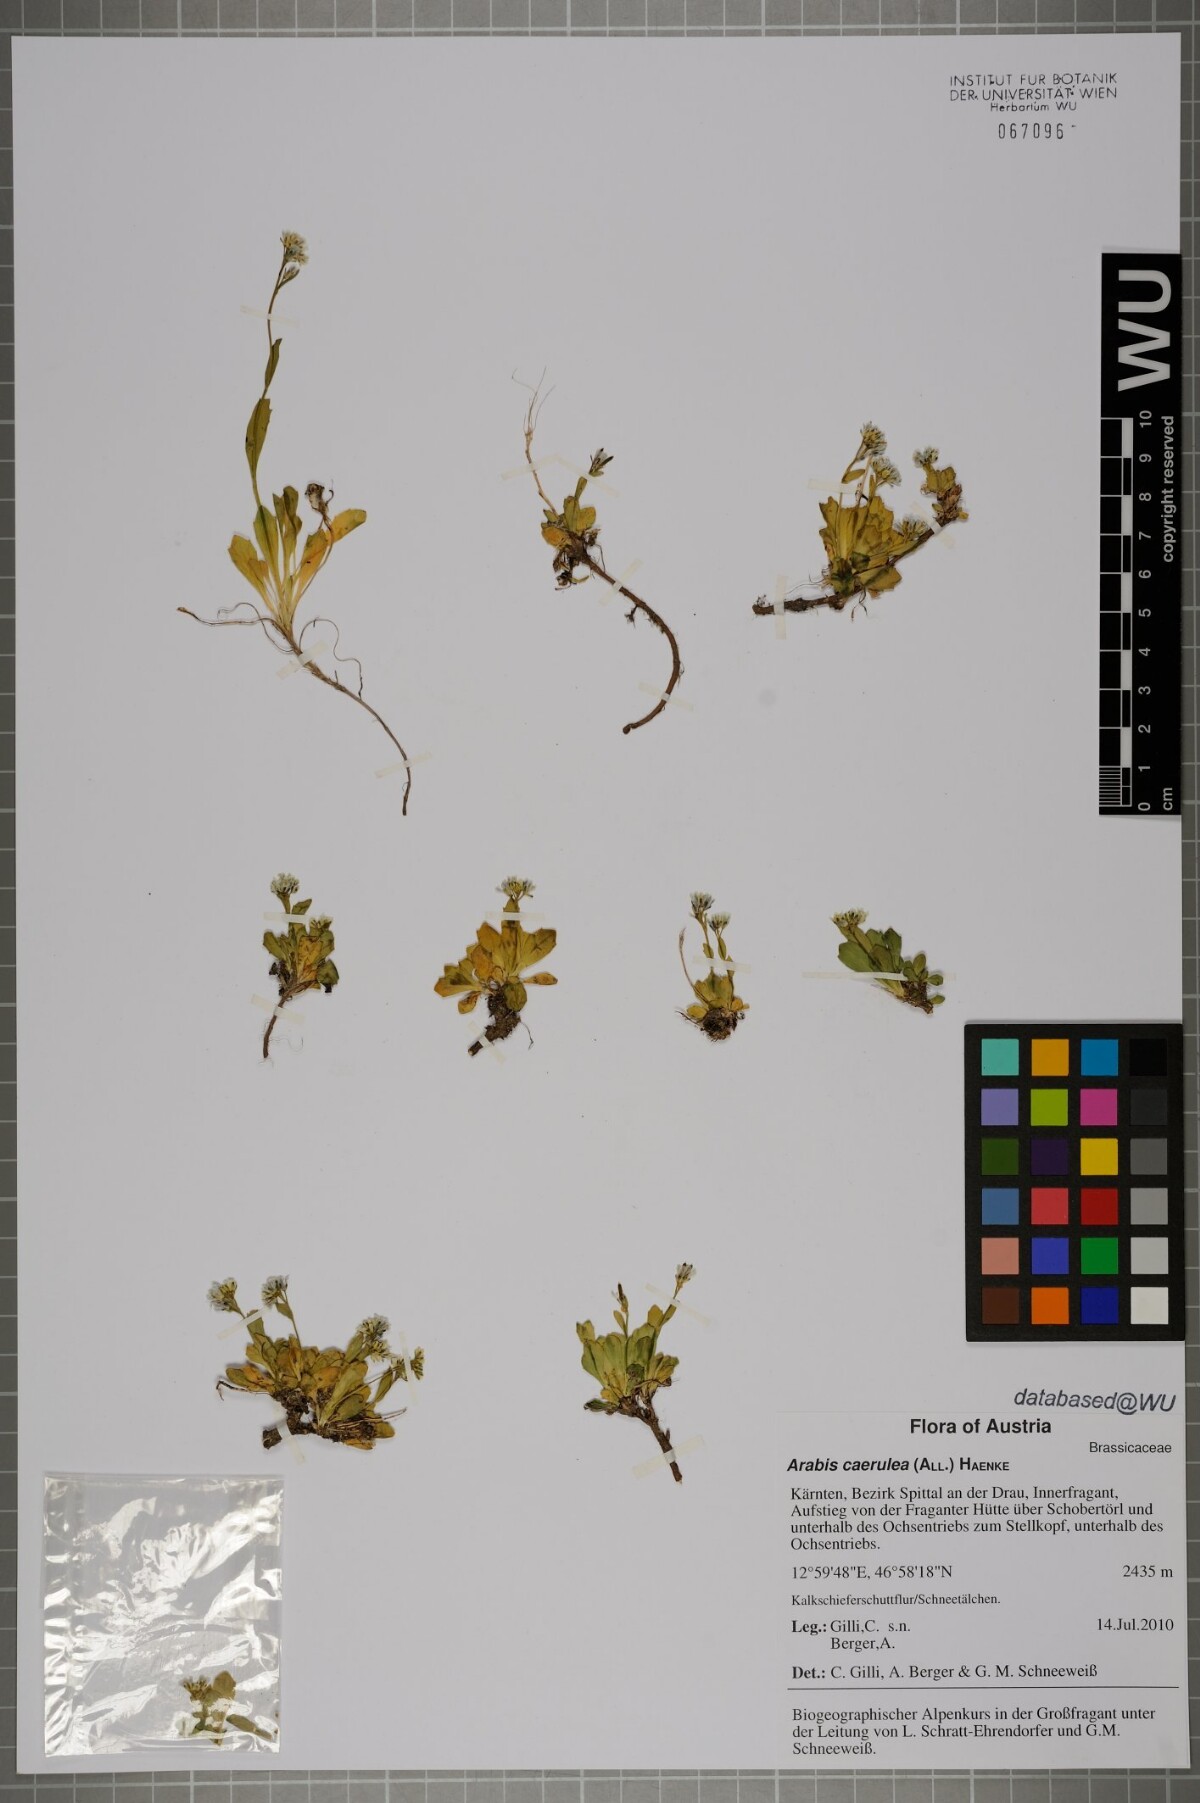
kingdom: Plantae
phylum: Tracheophyta
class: Magnoliopsida
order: Brassicales
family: Brassicaceae
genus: Arabis
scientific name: Arabis caerulea
